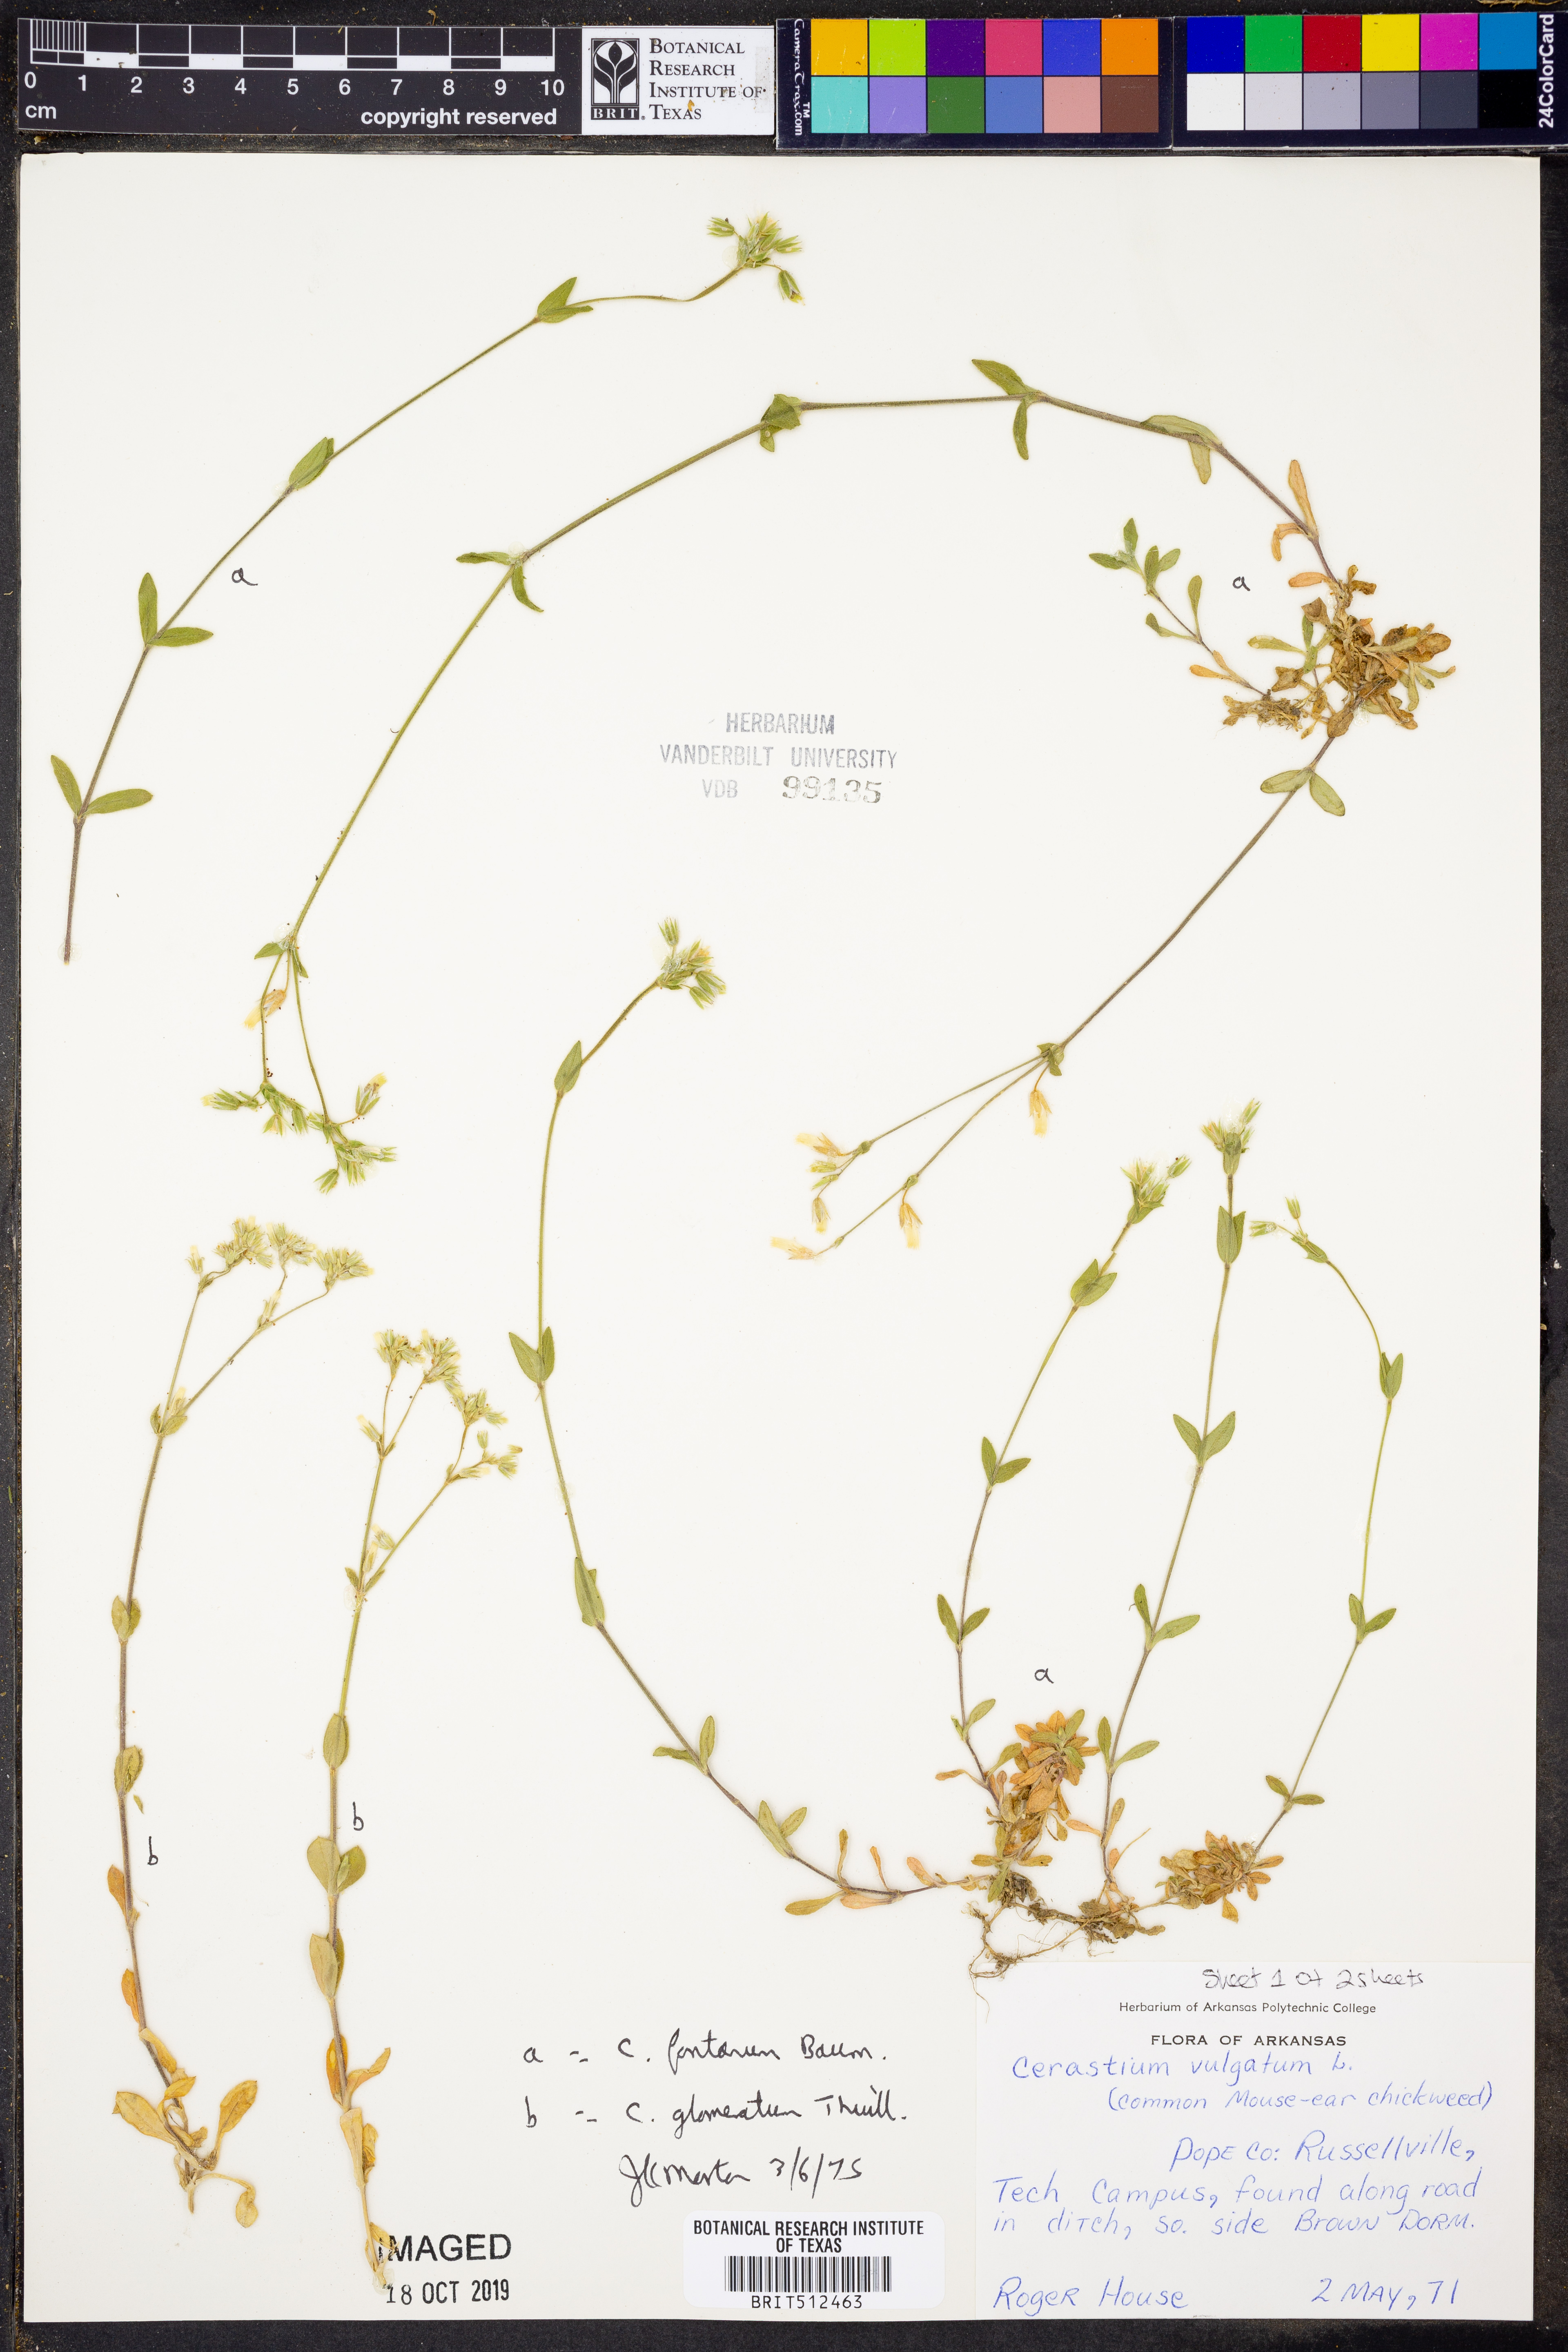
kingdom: Plantae
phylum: Tracheophyta
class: Magnoliopsida
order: Caryophyllales
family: Caryophyllaceae
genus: Cerastium
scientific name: Cerastium fontanum
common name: Common mouse-ear
